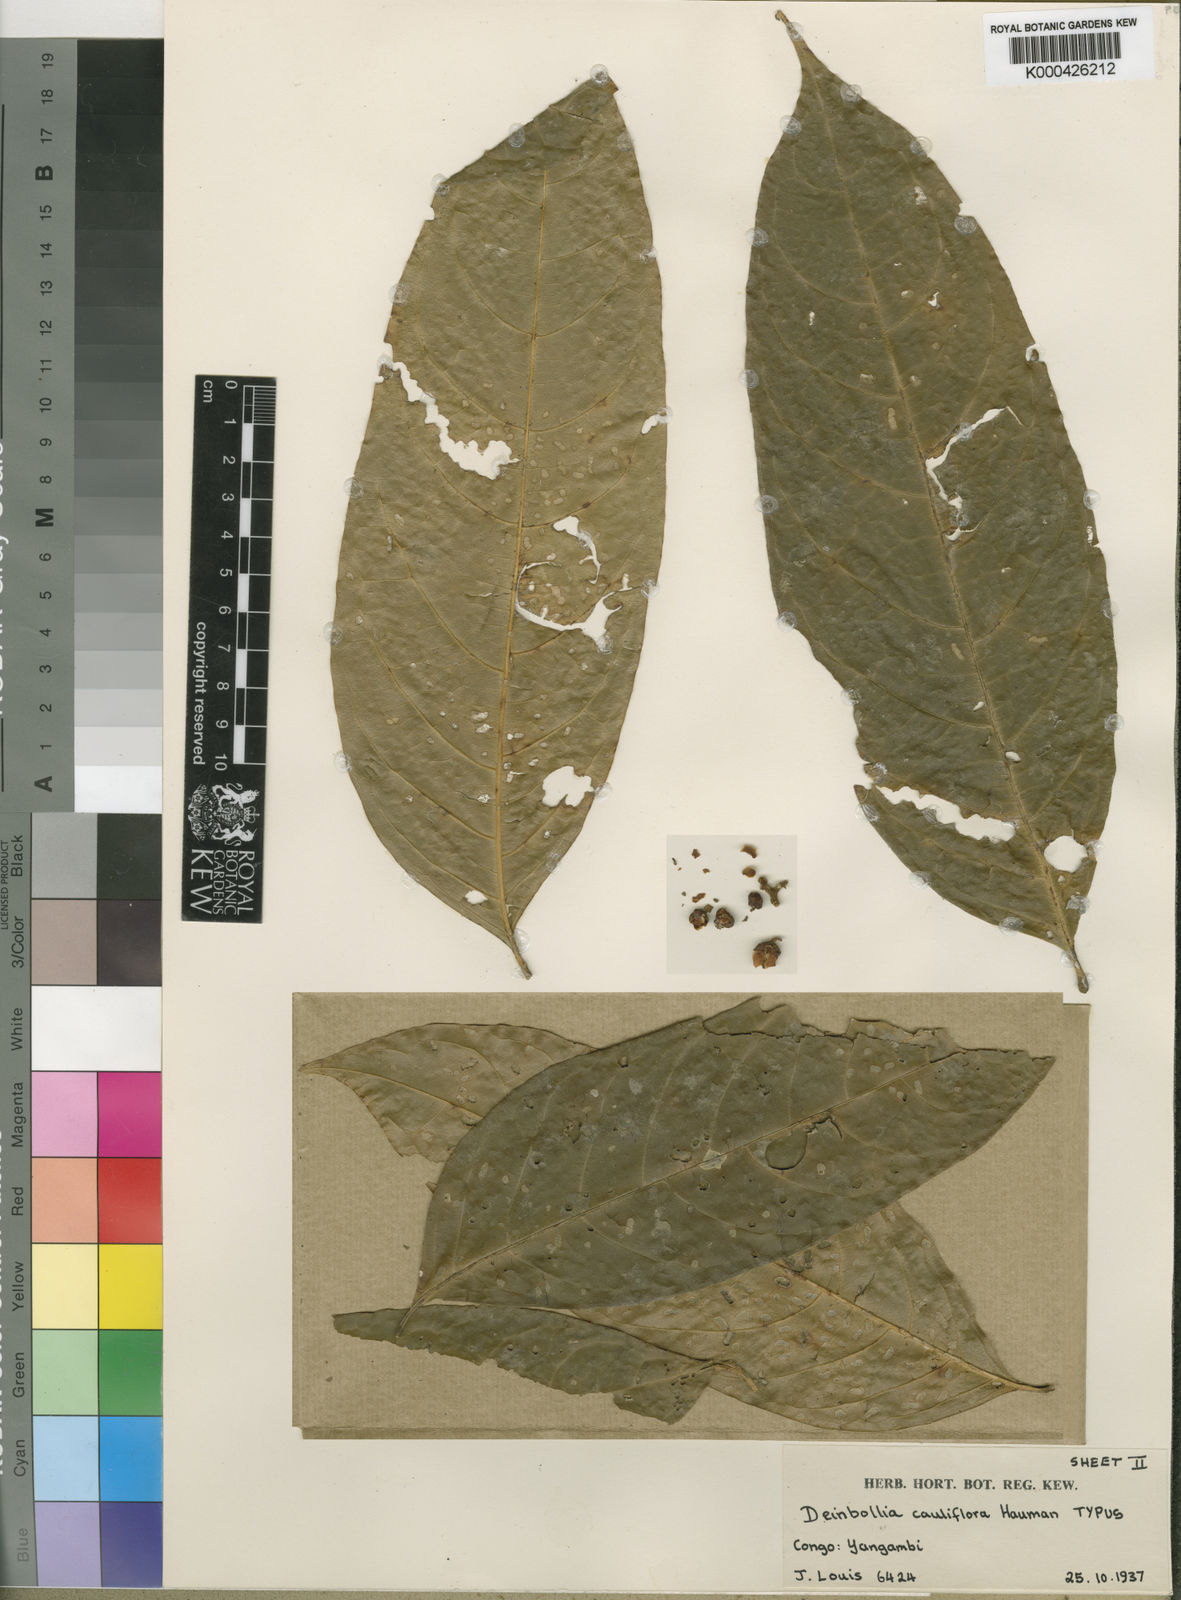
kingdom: Plantae
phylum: Tracheophyta
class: Magnoliopsida
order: Sapindales
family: Sapindaceae
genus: Deinbollia
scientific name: Deinbollia cauliflora
